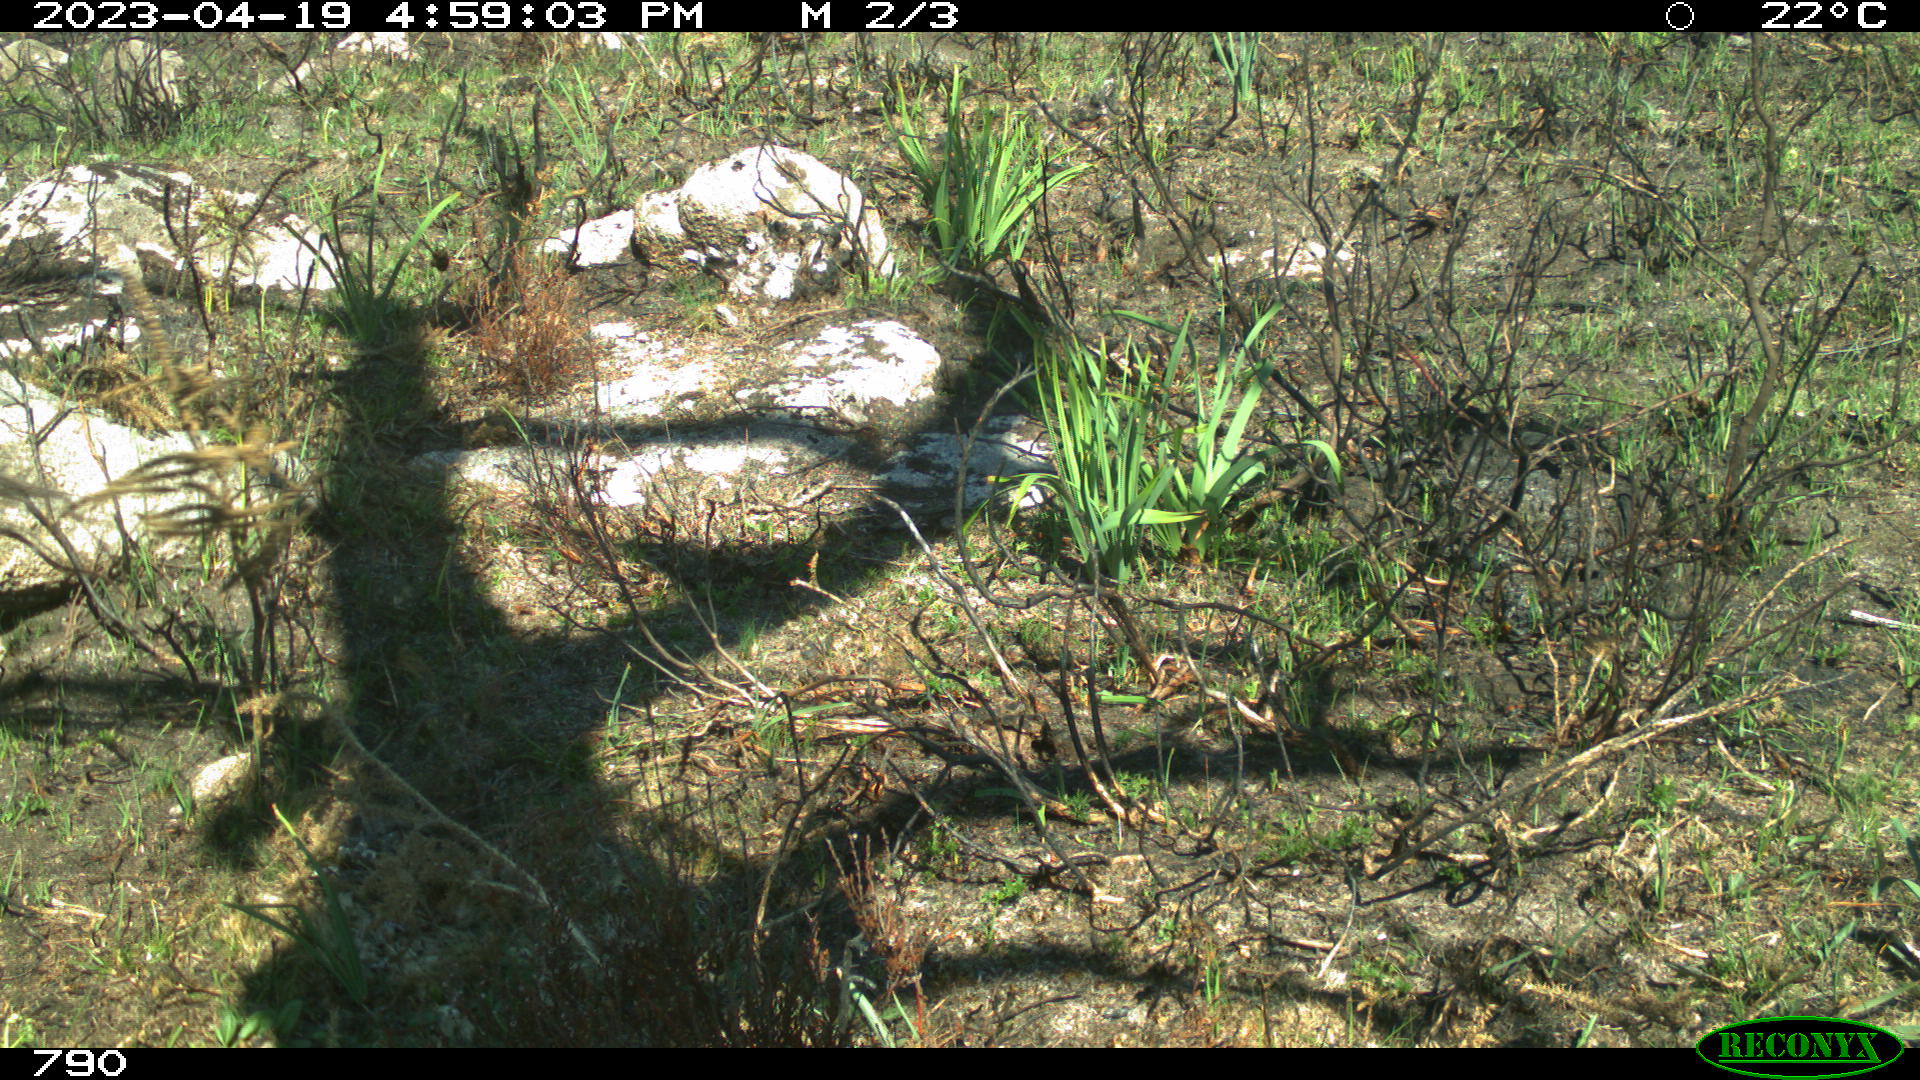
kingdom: Animalia
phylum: Chordata
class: Mammalia
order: Artiodactyla
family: Bovidae
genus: Bos
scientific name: Bos taurus
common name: Domesticated cattle
